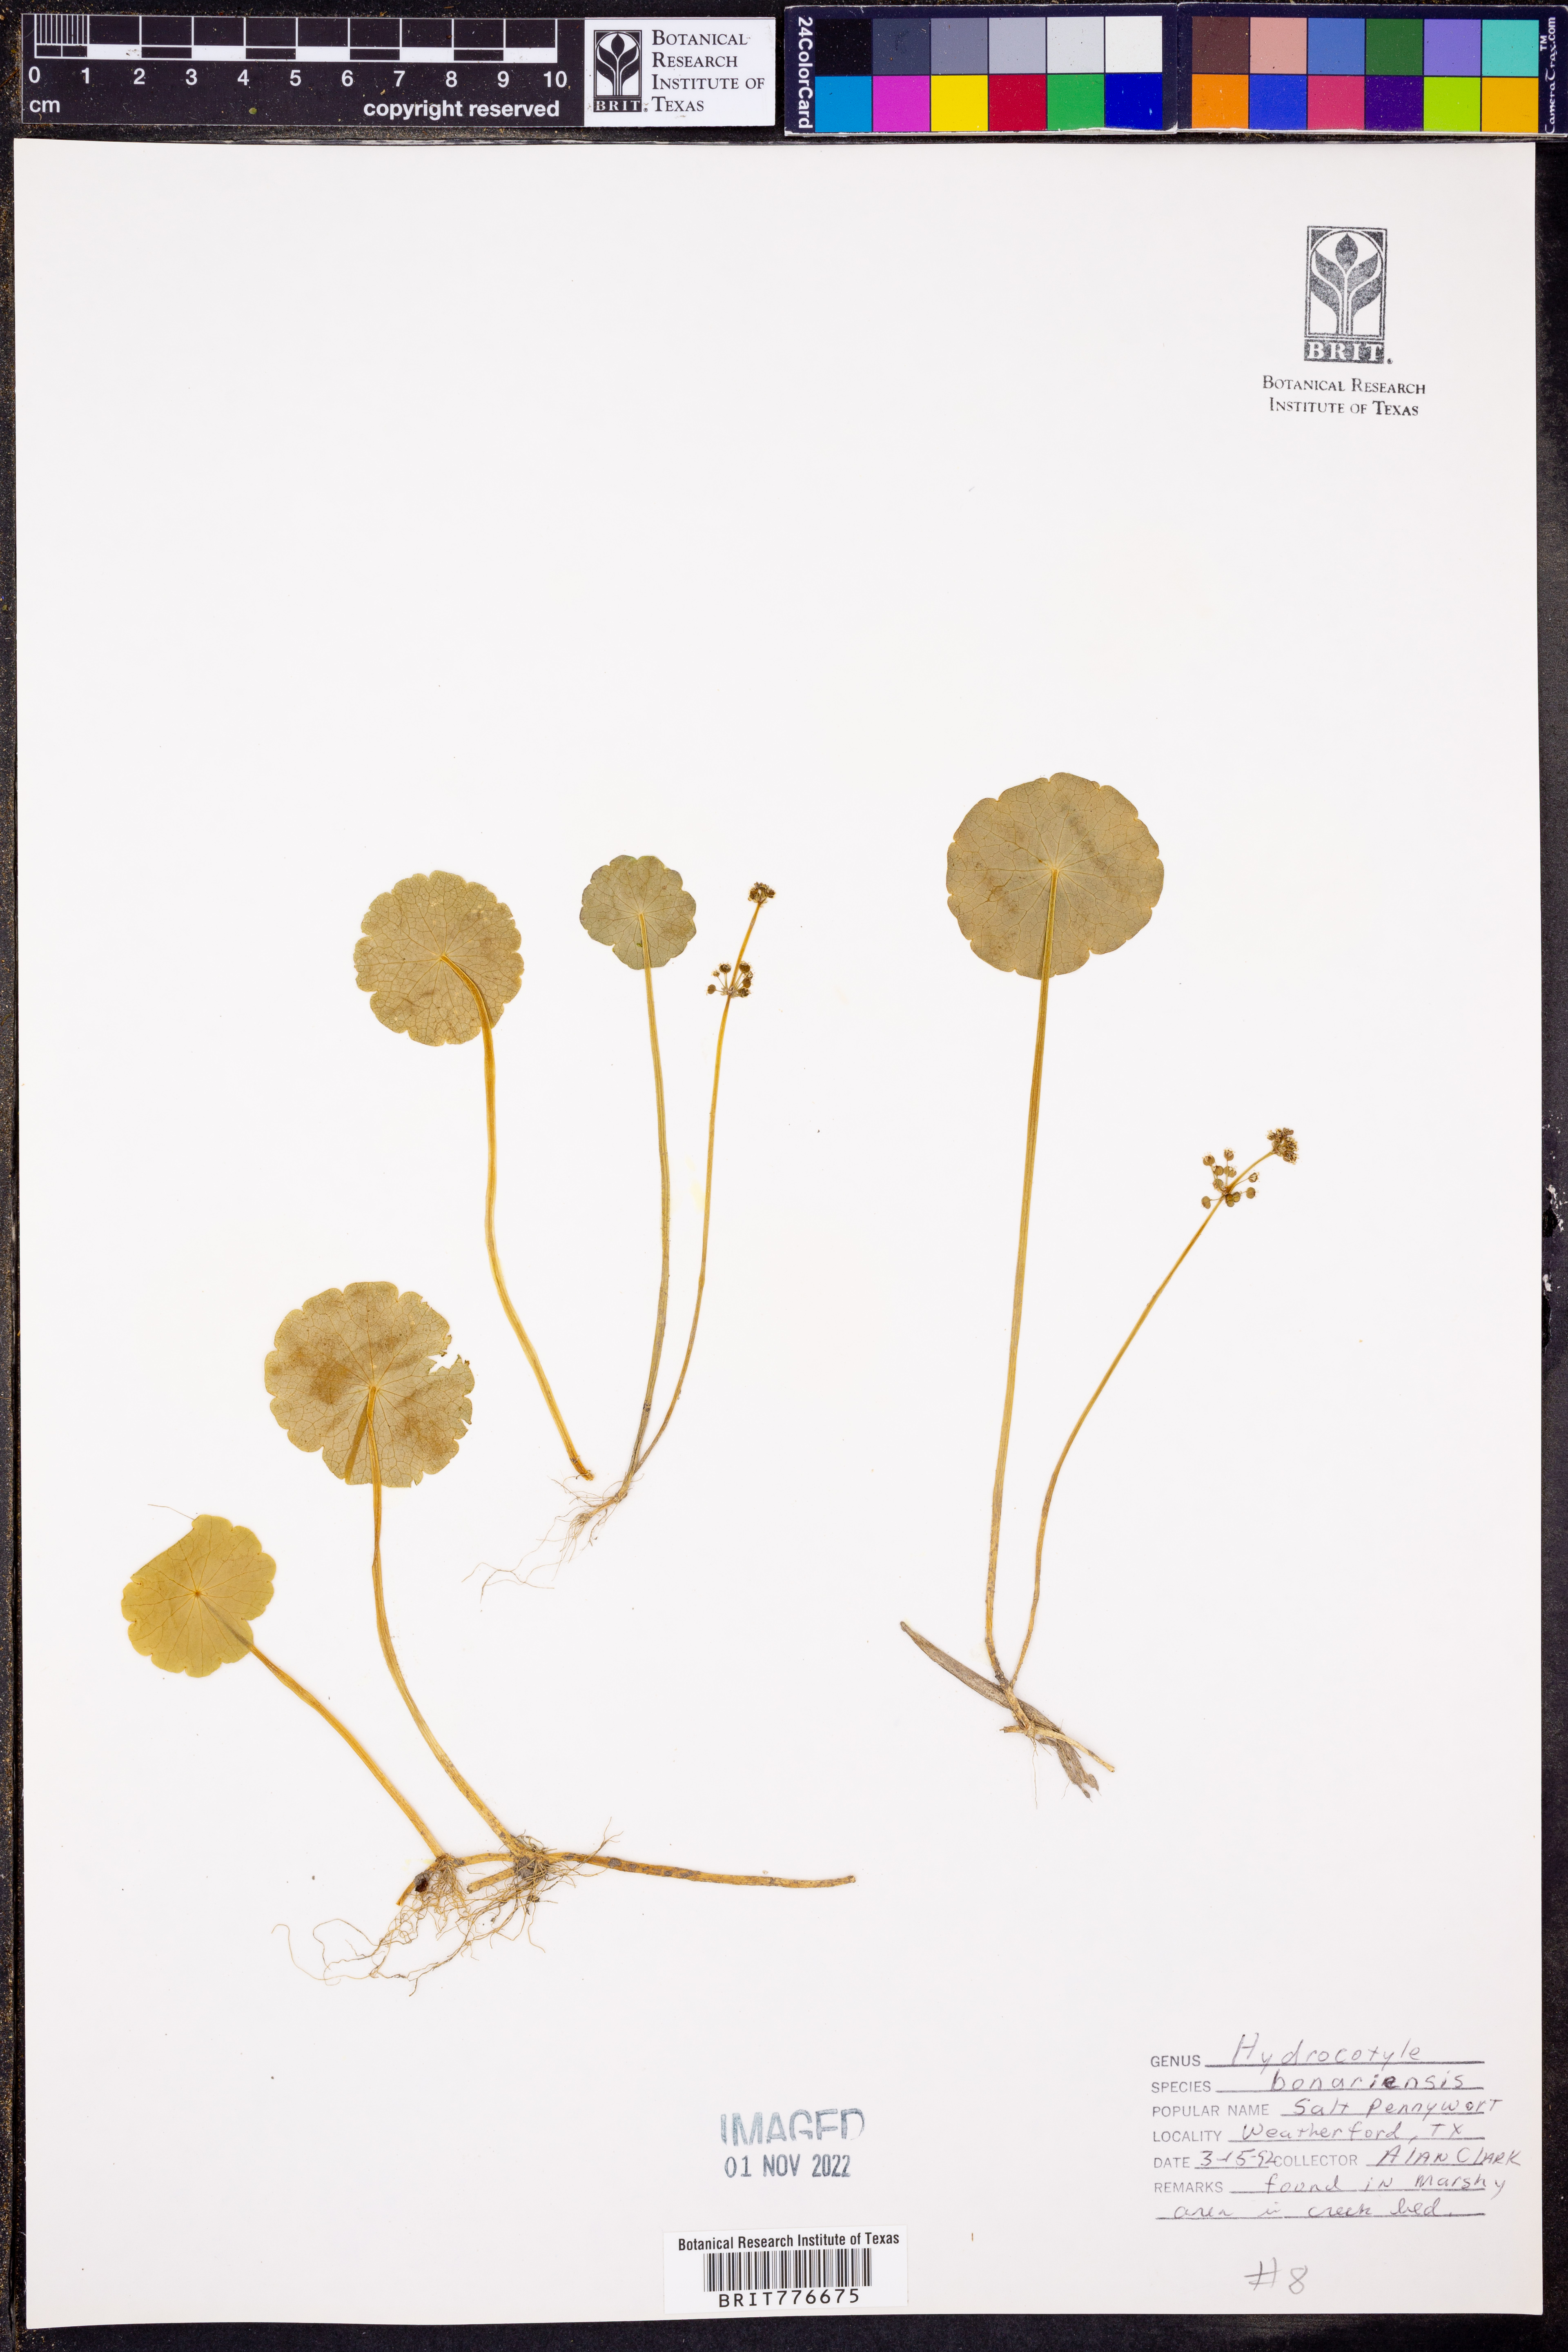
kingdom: Plantae
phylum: Tracheophyta
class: Magnoliopsida
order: Apiales
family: Araliaceae
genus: Hydrocotyle
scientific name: Hydrocotyle bonariensis
